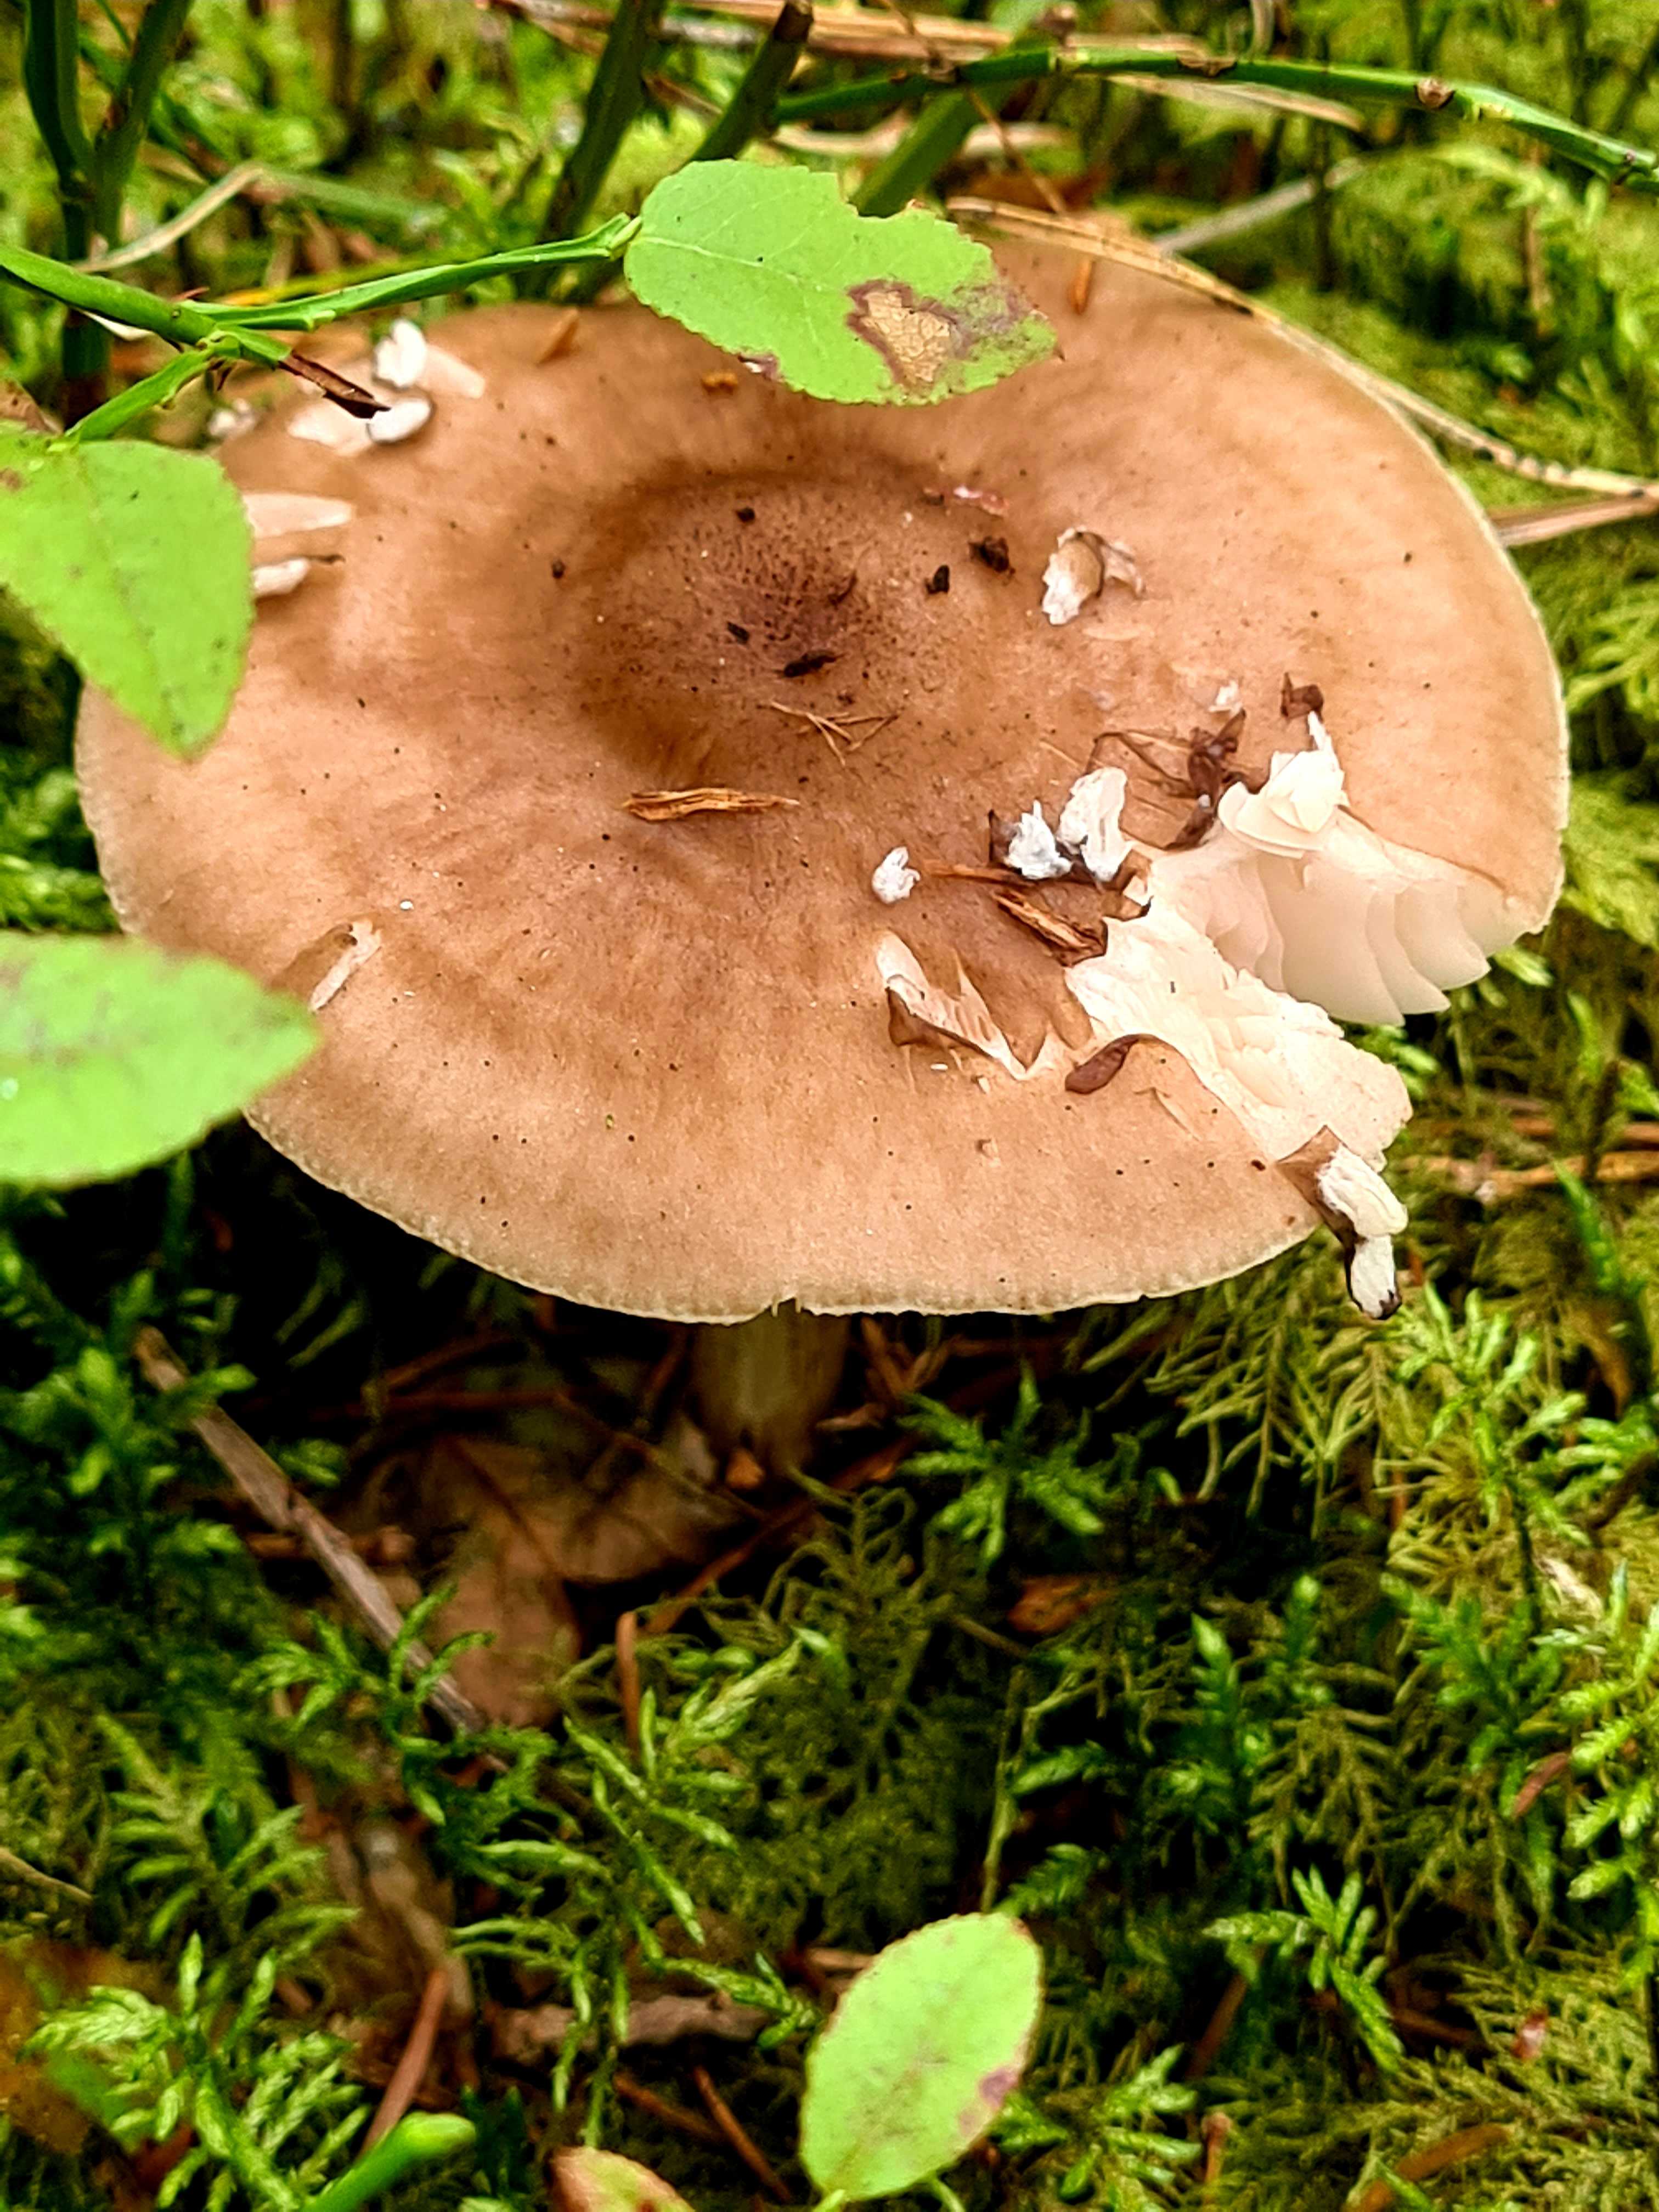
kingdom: Fungi
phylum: Basidiomycota
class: Agaricomycetes
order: Agaricales
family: Pluteaceae
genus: Pluteus
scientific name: Pluteus cervinus
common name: sodfarvet skærmhat
